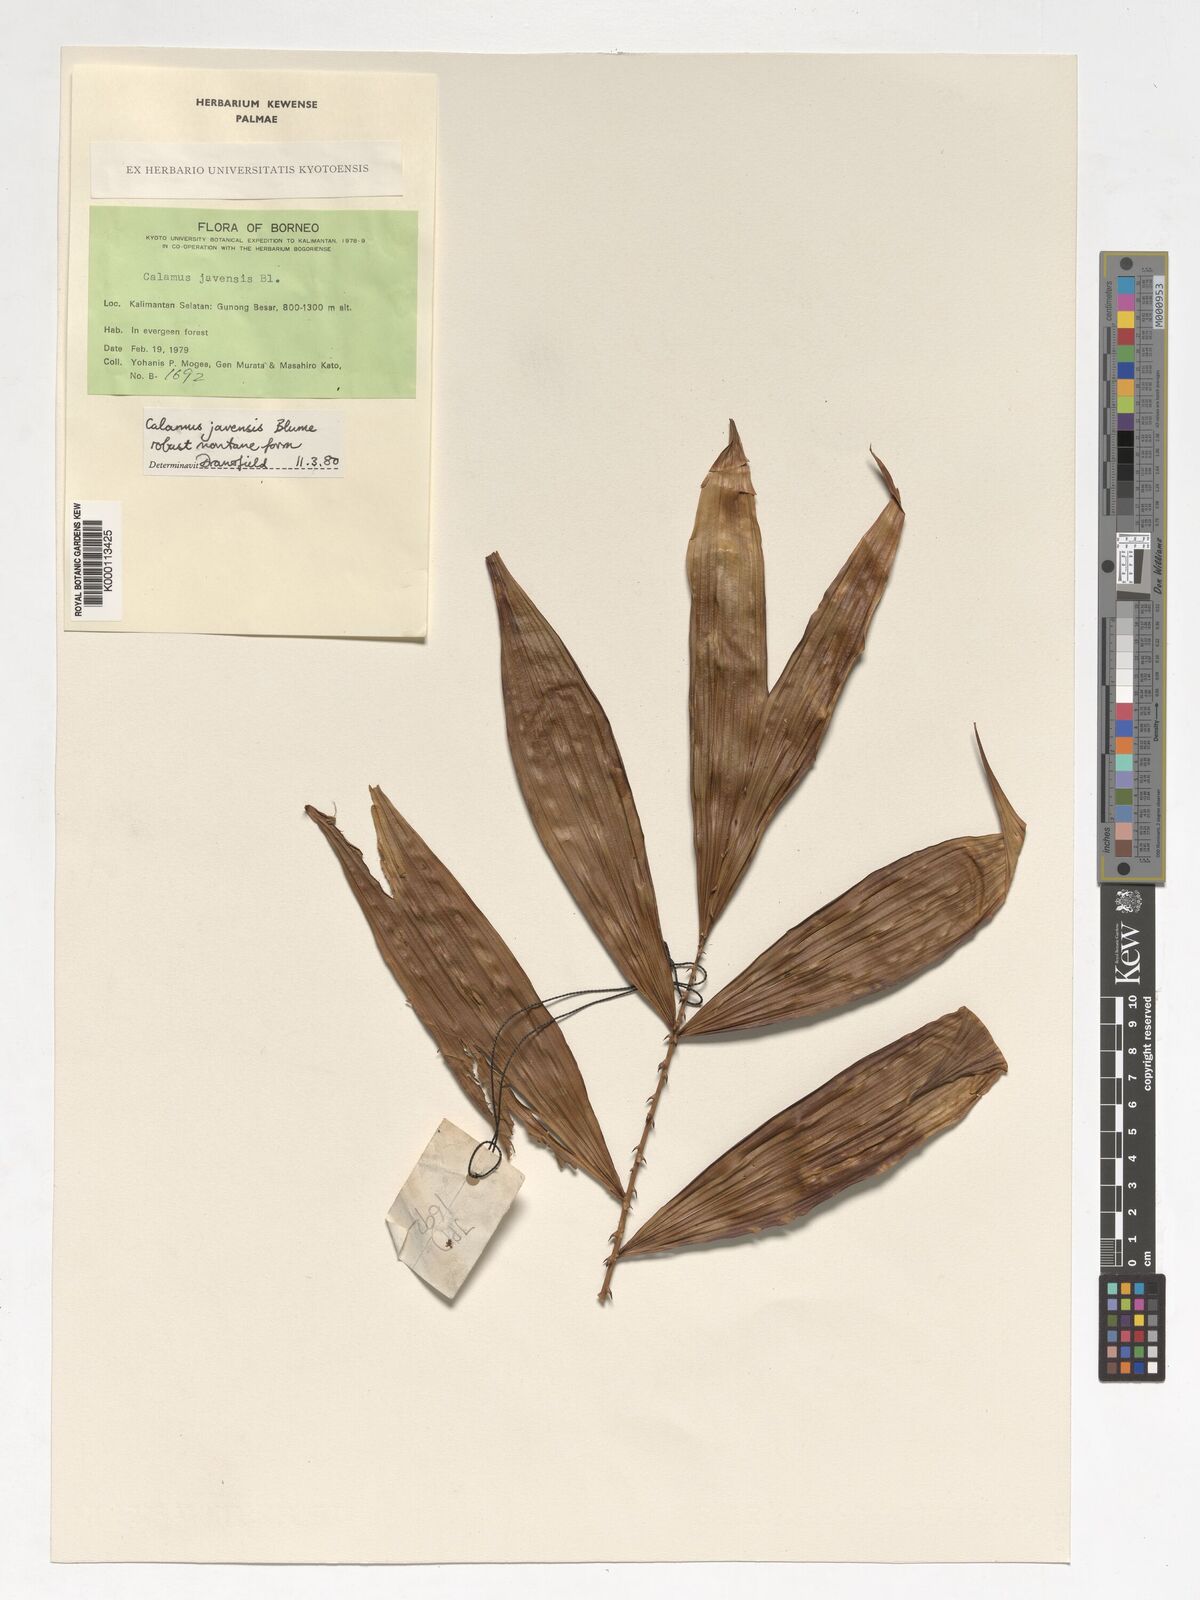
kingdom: Plantae
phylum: Tracheophyta
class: Liliopsida
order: Arecales
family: Arecaceae
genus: Calamus
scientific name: Calamus javensis
